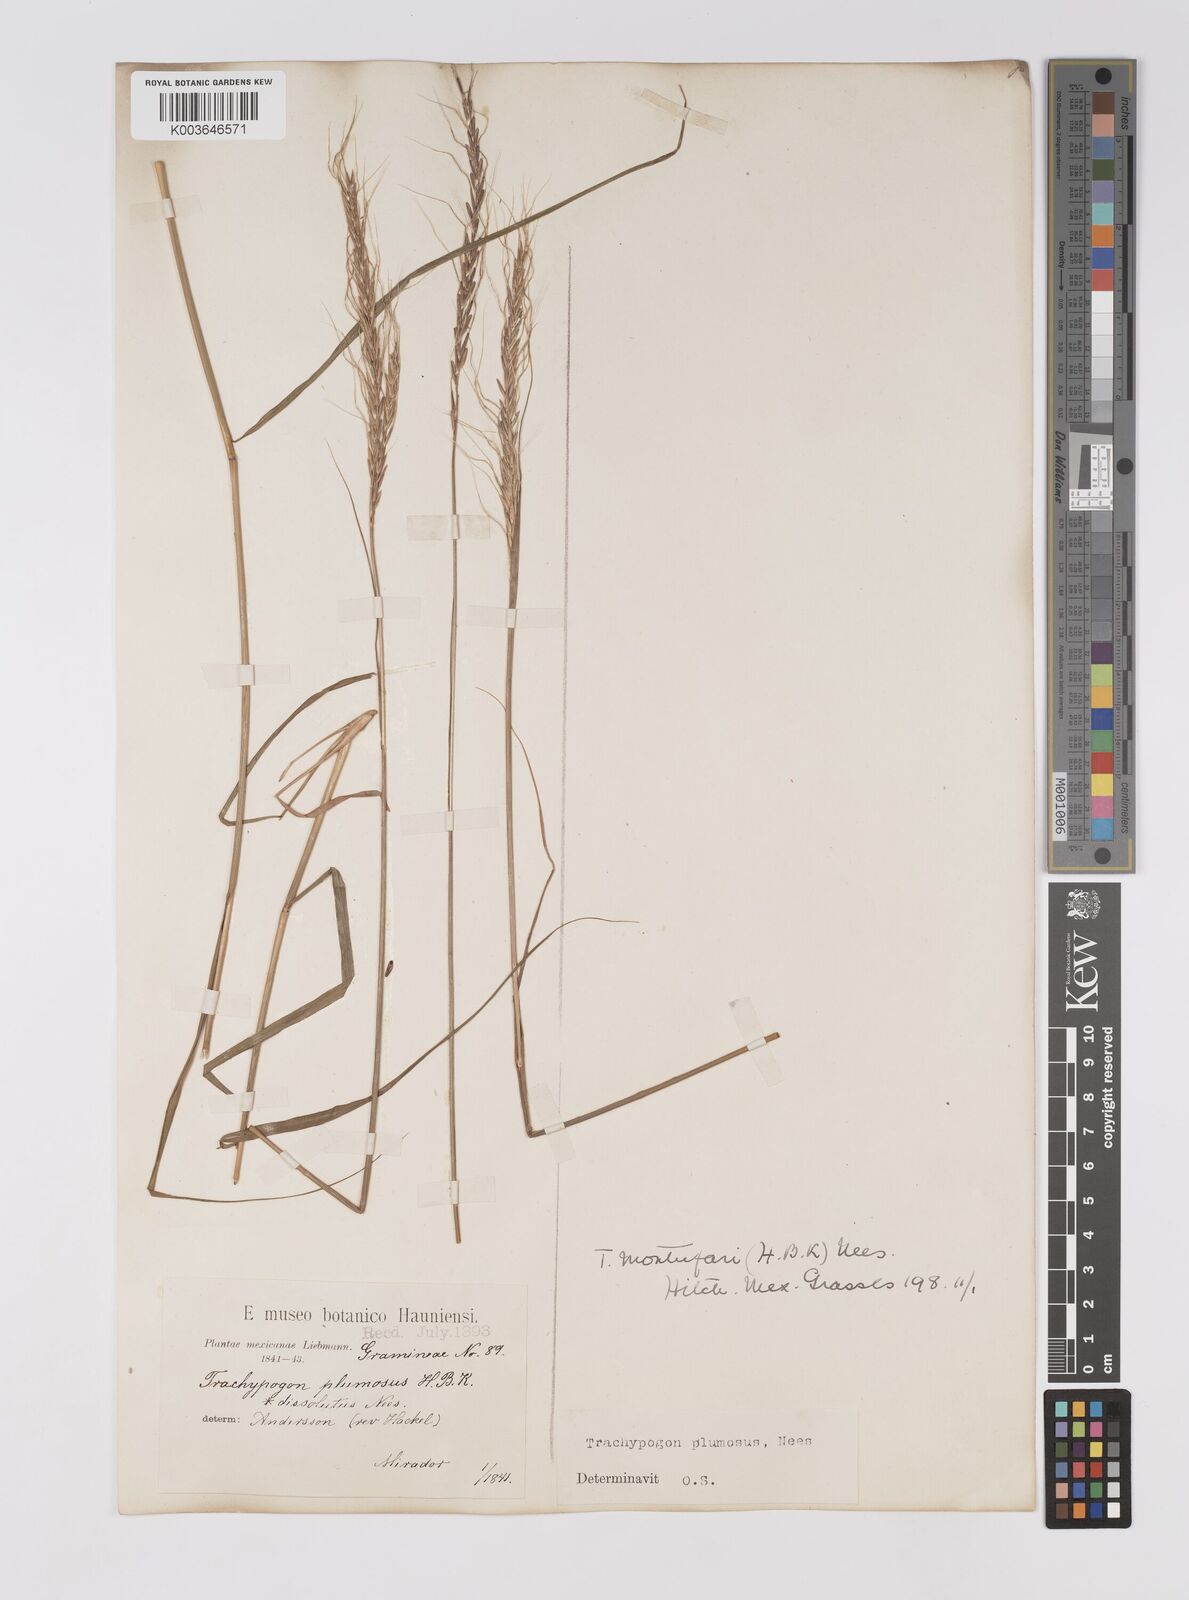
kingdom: Plantae
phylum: Tracheophyta
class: Liliopsida
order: Poales
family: Poaceae
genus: Trachypogon
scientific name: Trachypogon spicatus
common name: Crinkle-awn
